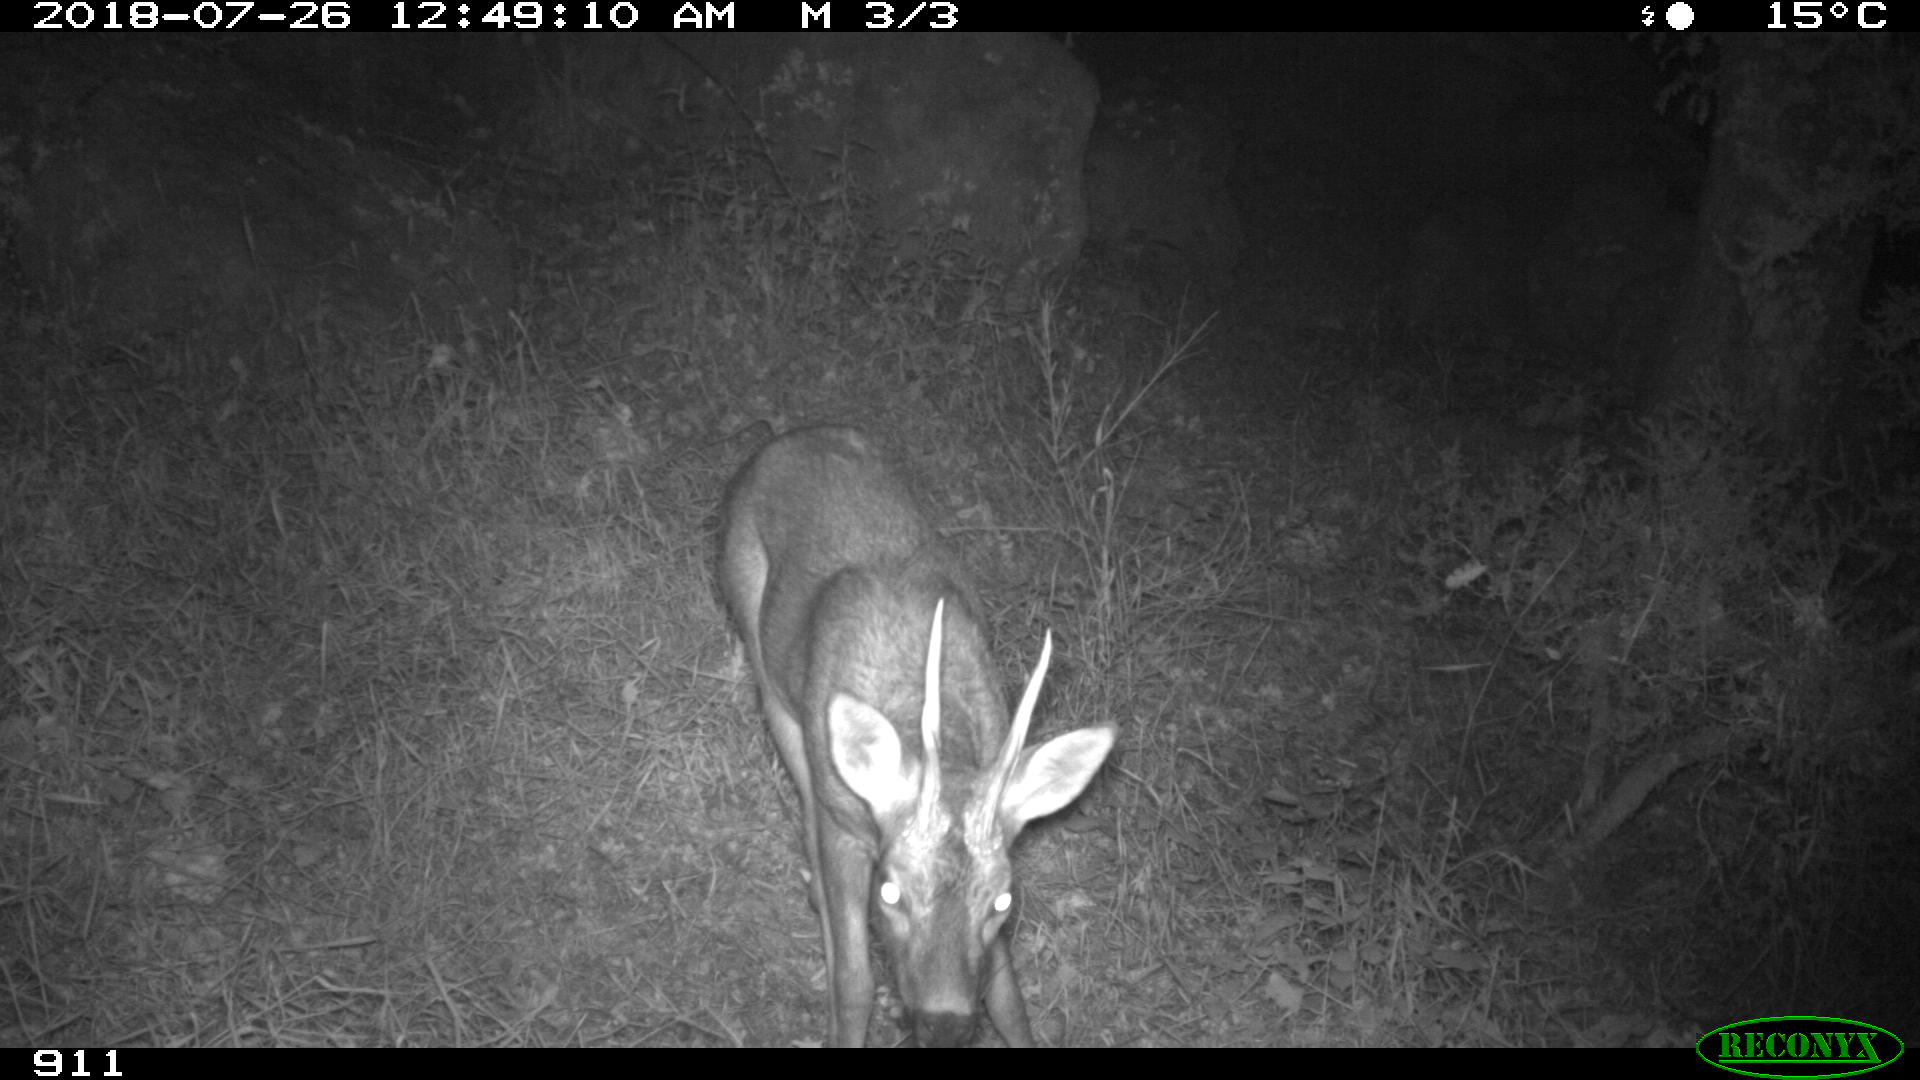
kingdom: Animalia
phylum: Chordata
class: Mammalia
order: Artiodactyla
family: Cervidae
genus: Capreolus
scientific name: Capreolus capreolus
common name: Western roe deer
